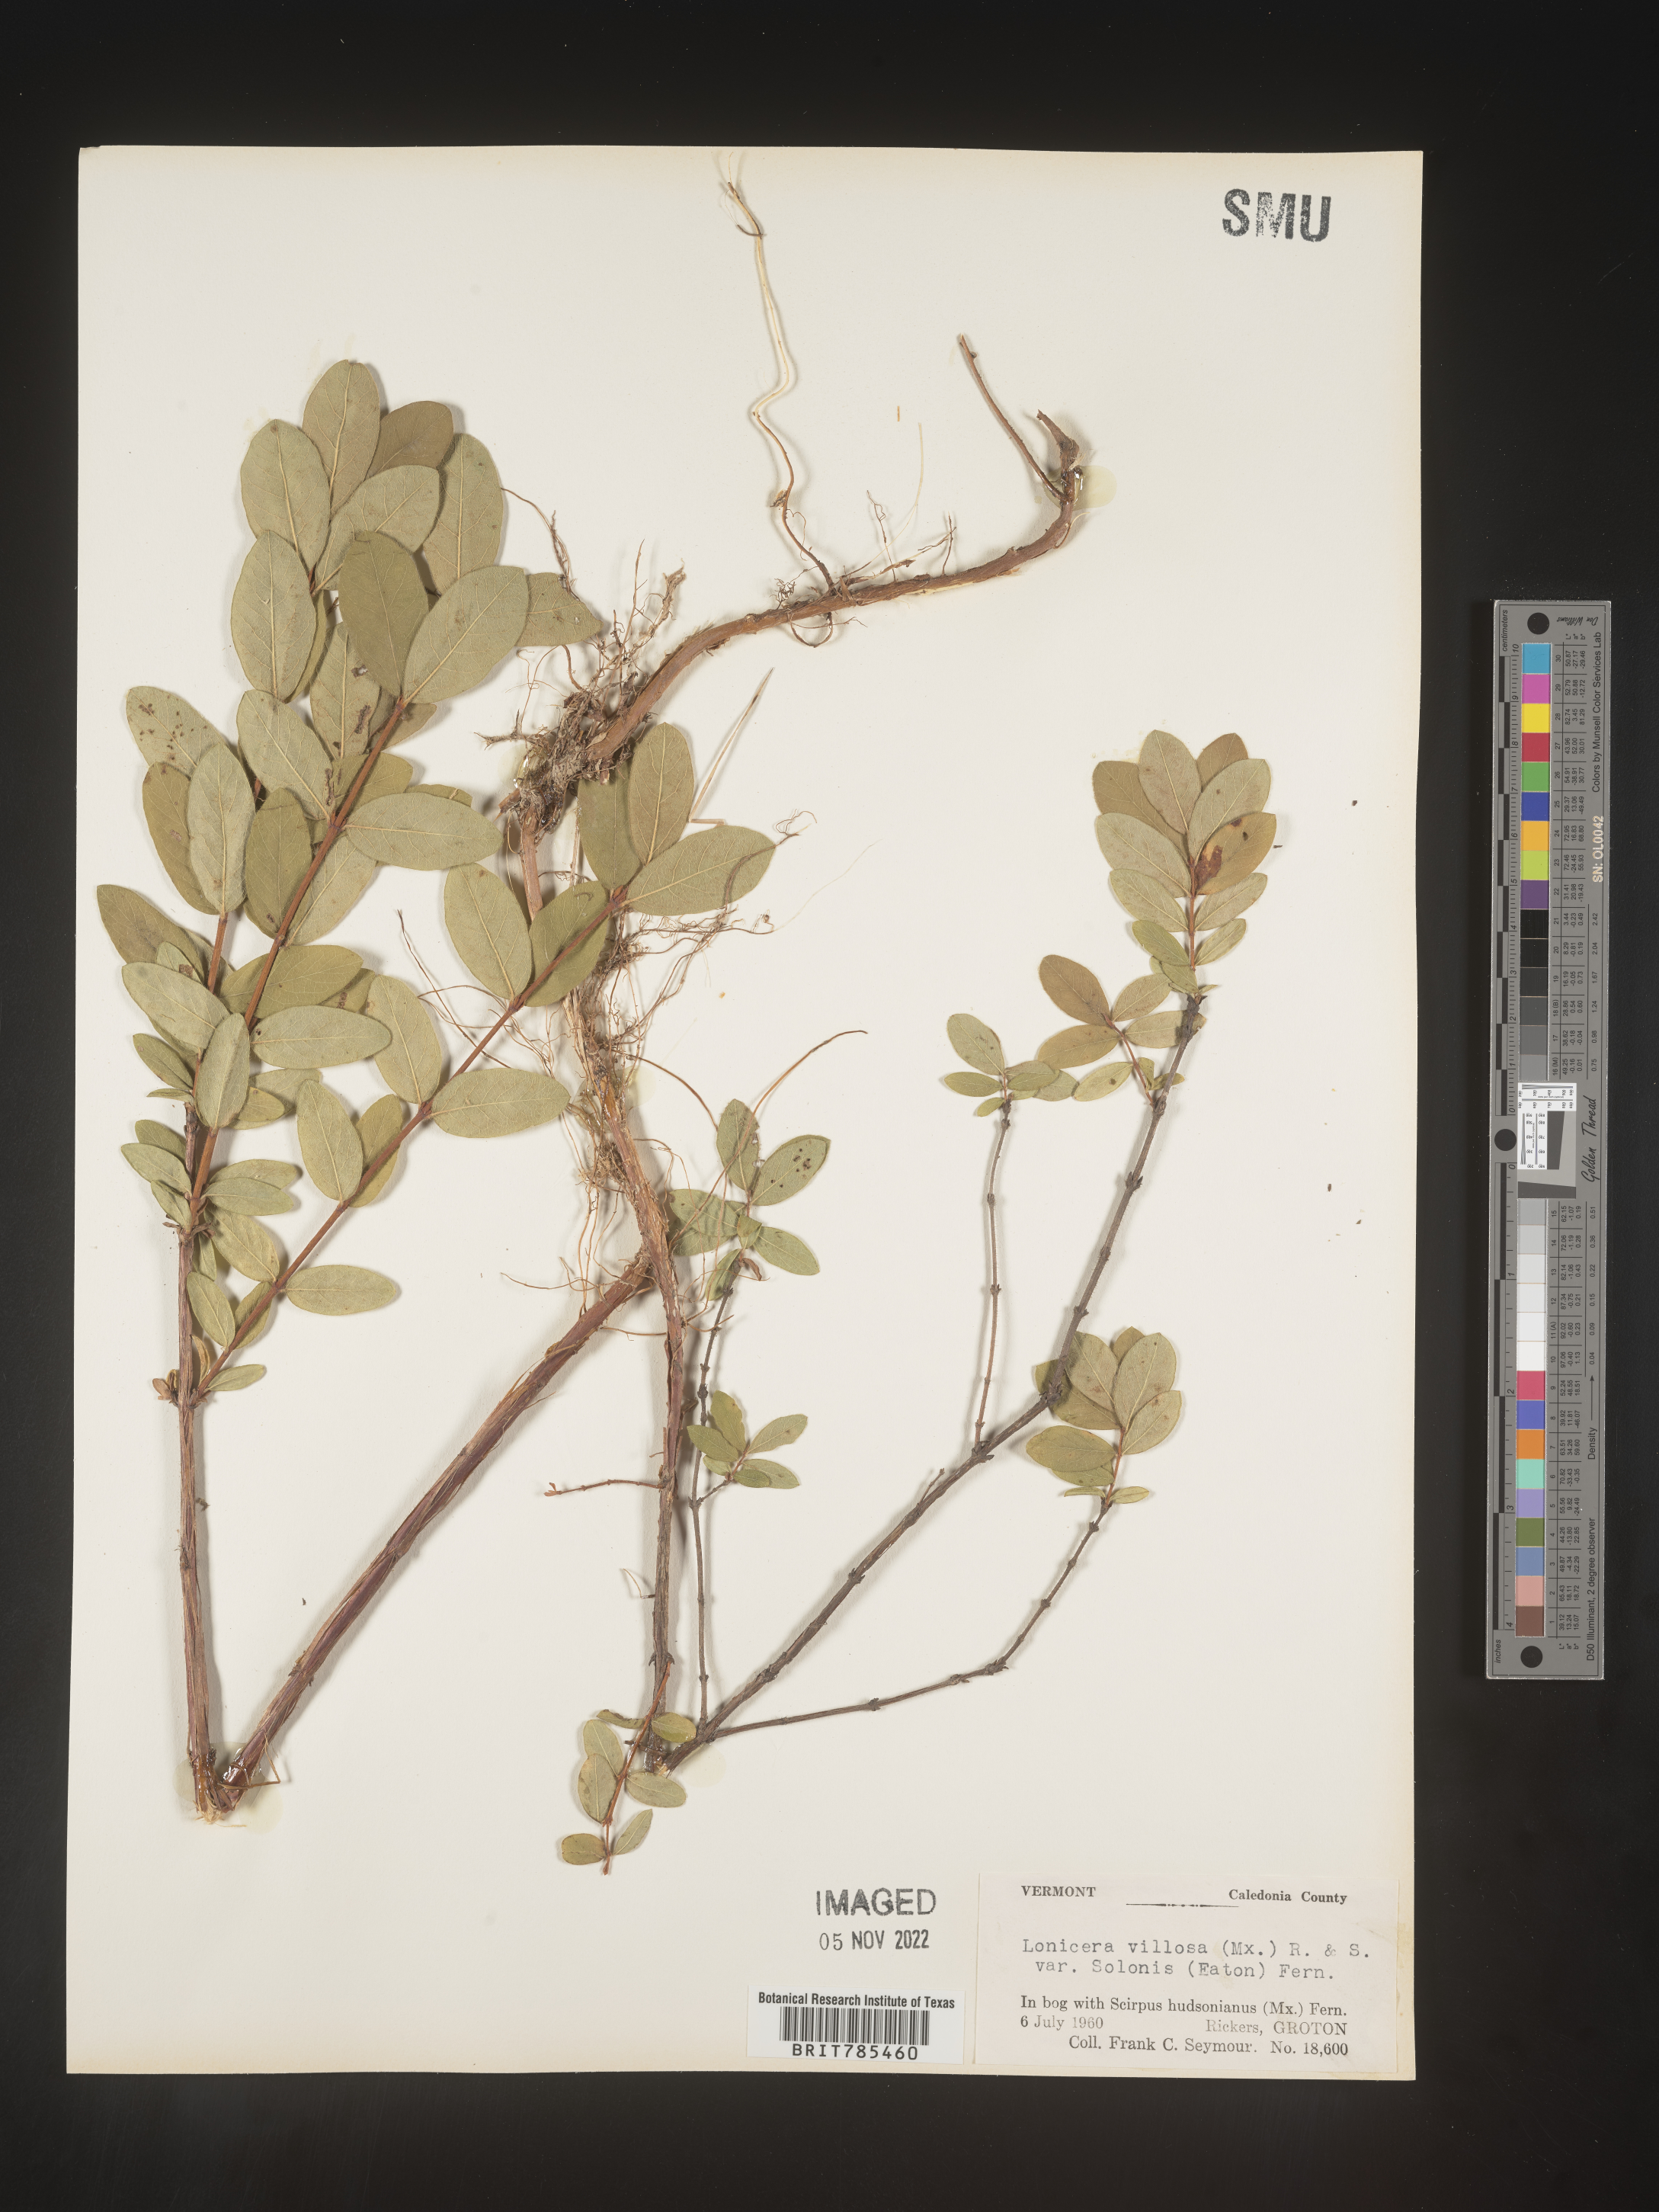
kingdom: Plantae
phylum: Tracheophyta
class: Magnoliopsida
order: Dipsacales
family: Caprifoliaceae
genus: Lonicera
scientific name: Lonicera
